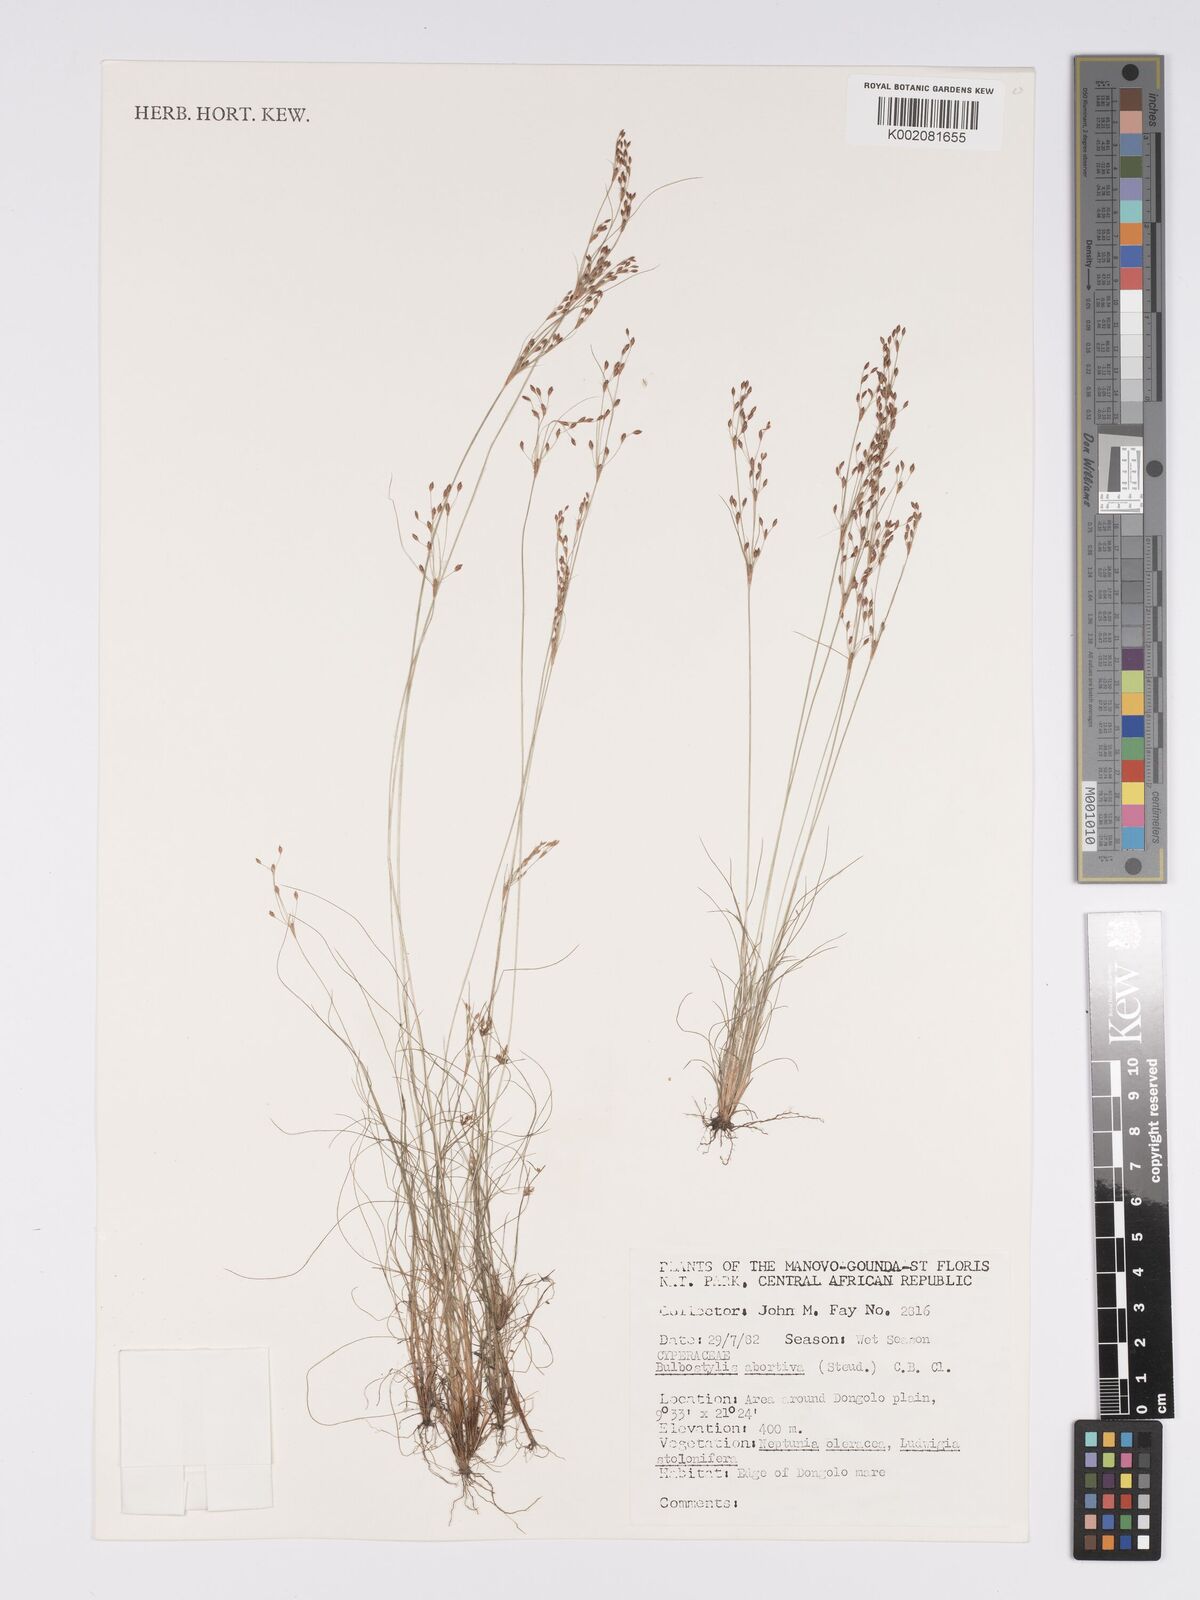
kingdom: Plantae
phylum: Tracheophyta
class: Liliopsida
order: Poales
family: Cyperaceae
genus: Bulbostylis
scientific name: Bulbostylis abortiva
